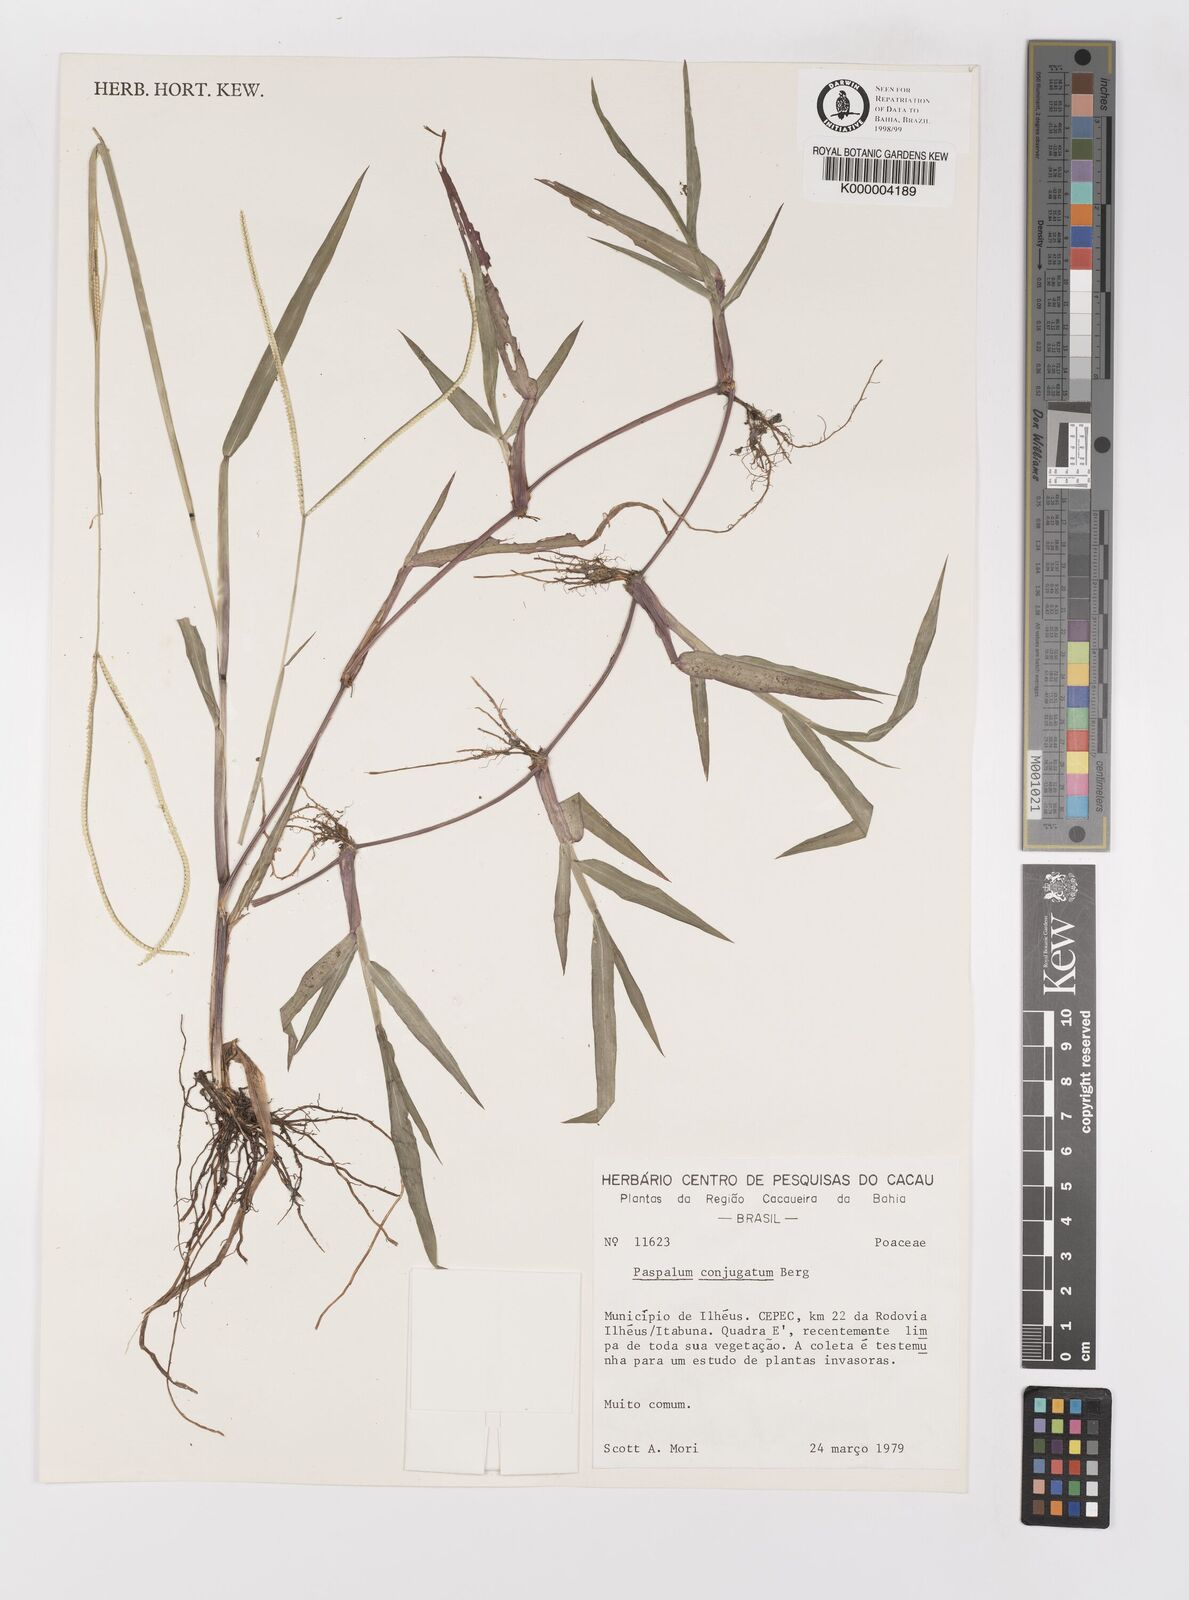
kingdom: Plantae
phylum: Tracheophyta
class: Liliopsida
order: Poales
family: Poaceae
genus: Paspalum
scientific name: Paspalum conjugatum
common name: Hilograss
